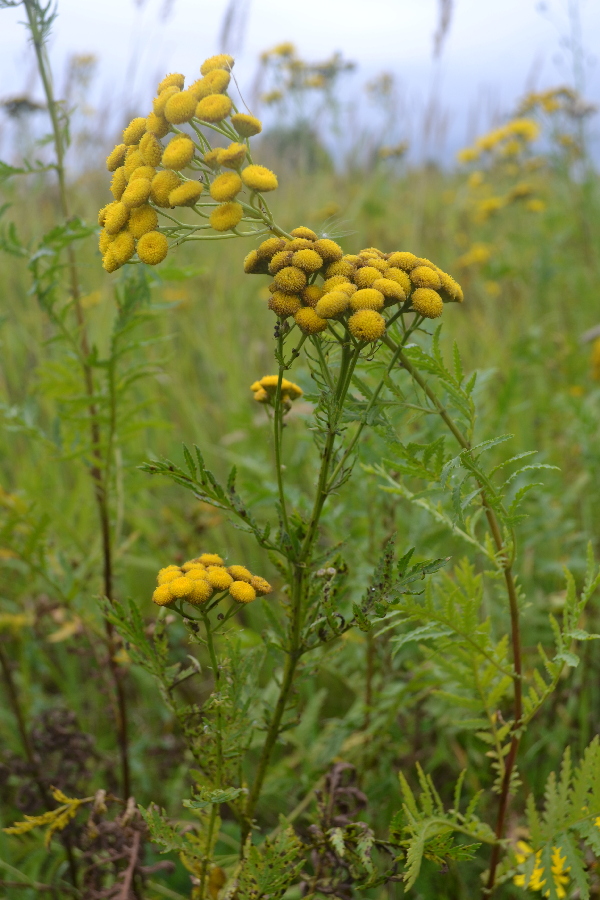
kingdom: Plantae
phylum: Tracheophyta
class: Magnoliopsida
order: Asterales
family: Asteraceae
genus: Tanacetum
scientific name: Tanacetum vulgare
